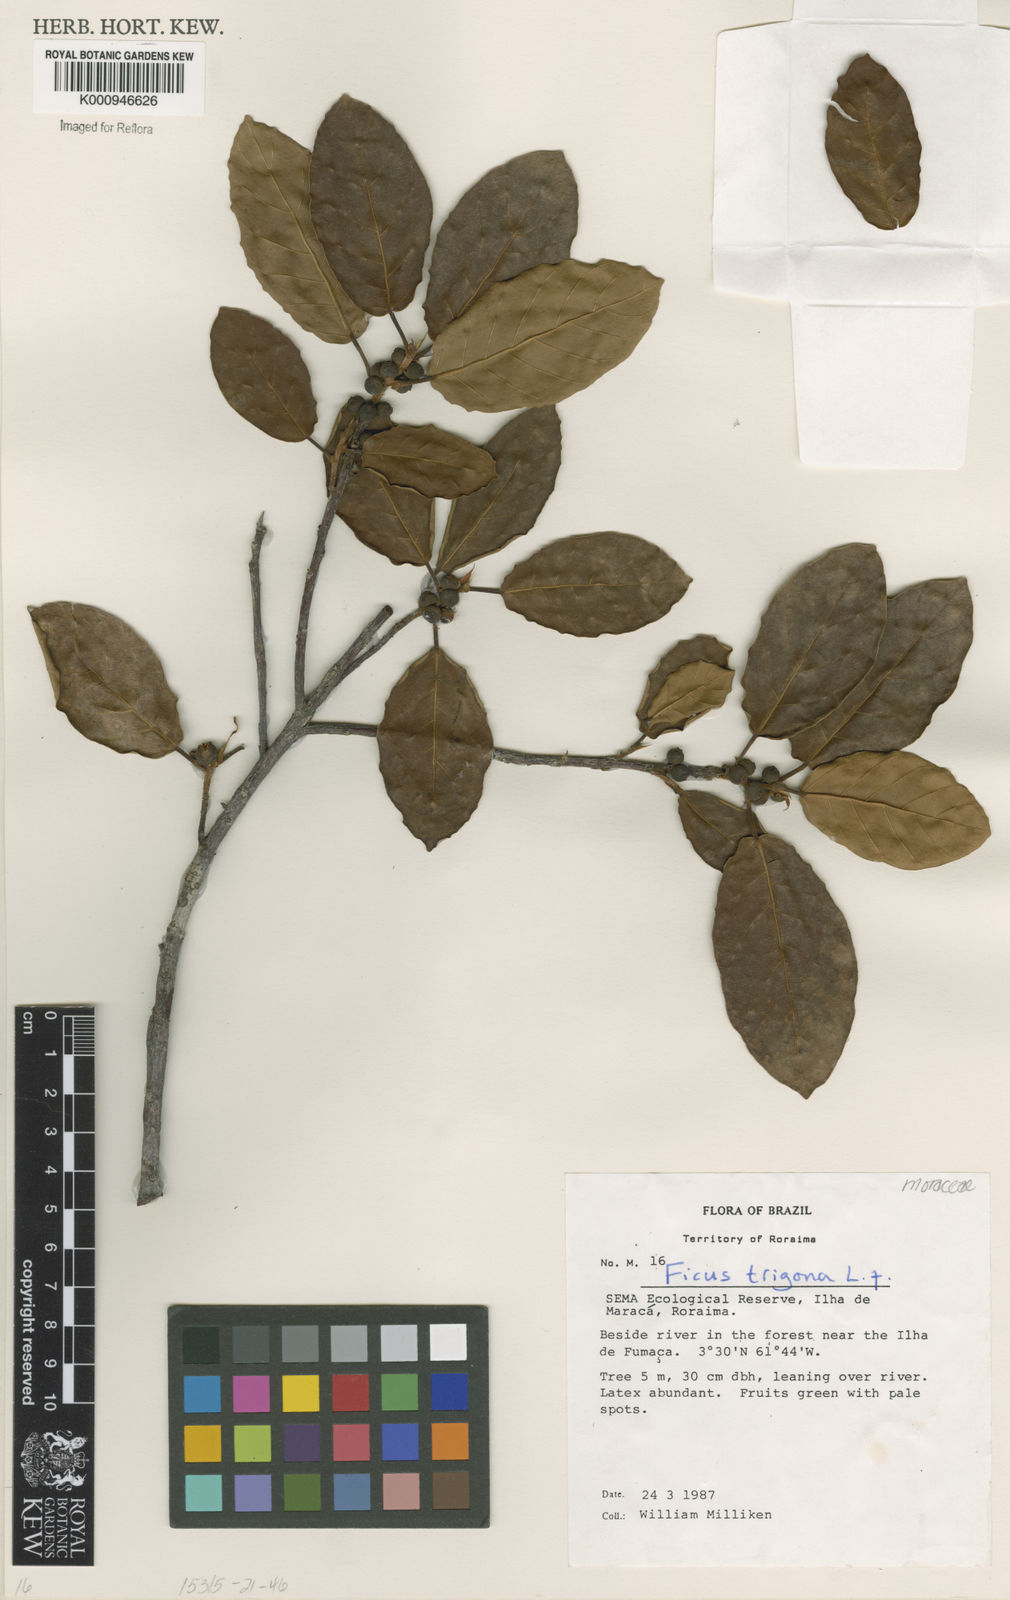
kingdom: Plantae
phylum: Tracheophyta
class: Magnoliopsida
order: Rosales
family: Moraceae
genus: Ficus
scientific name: Ficus trigona
